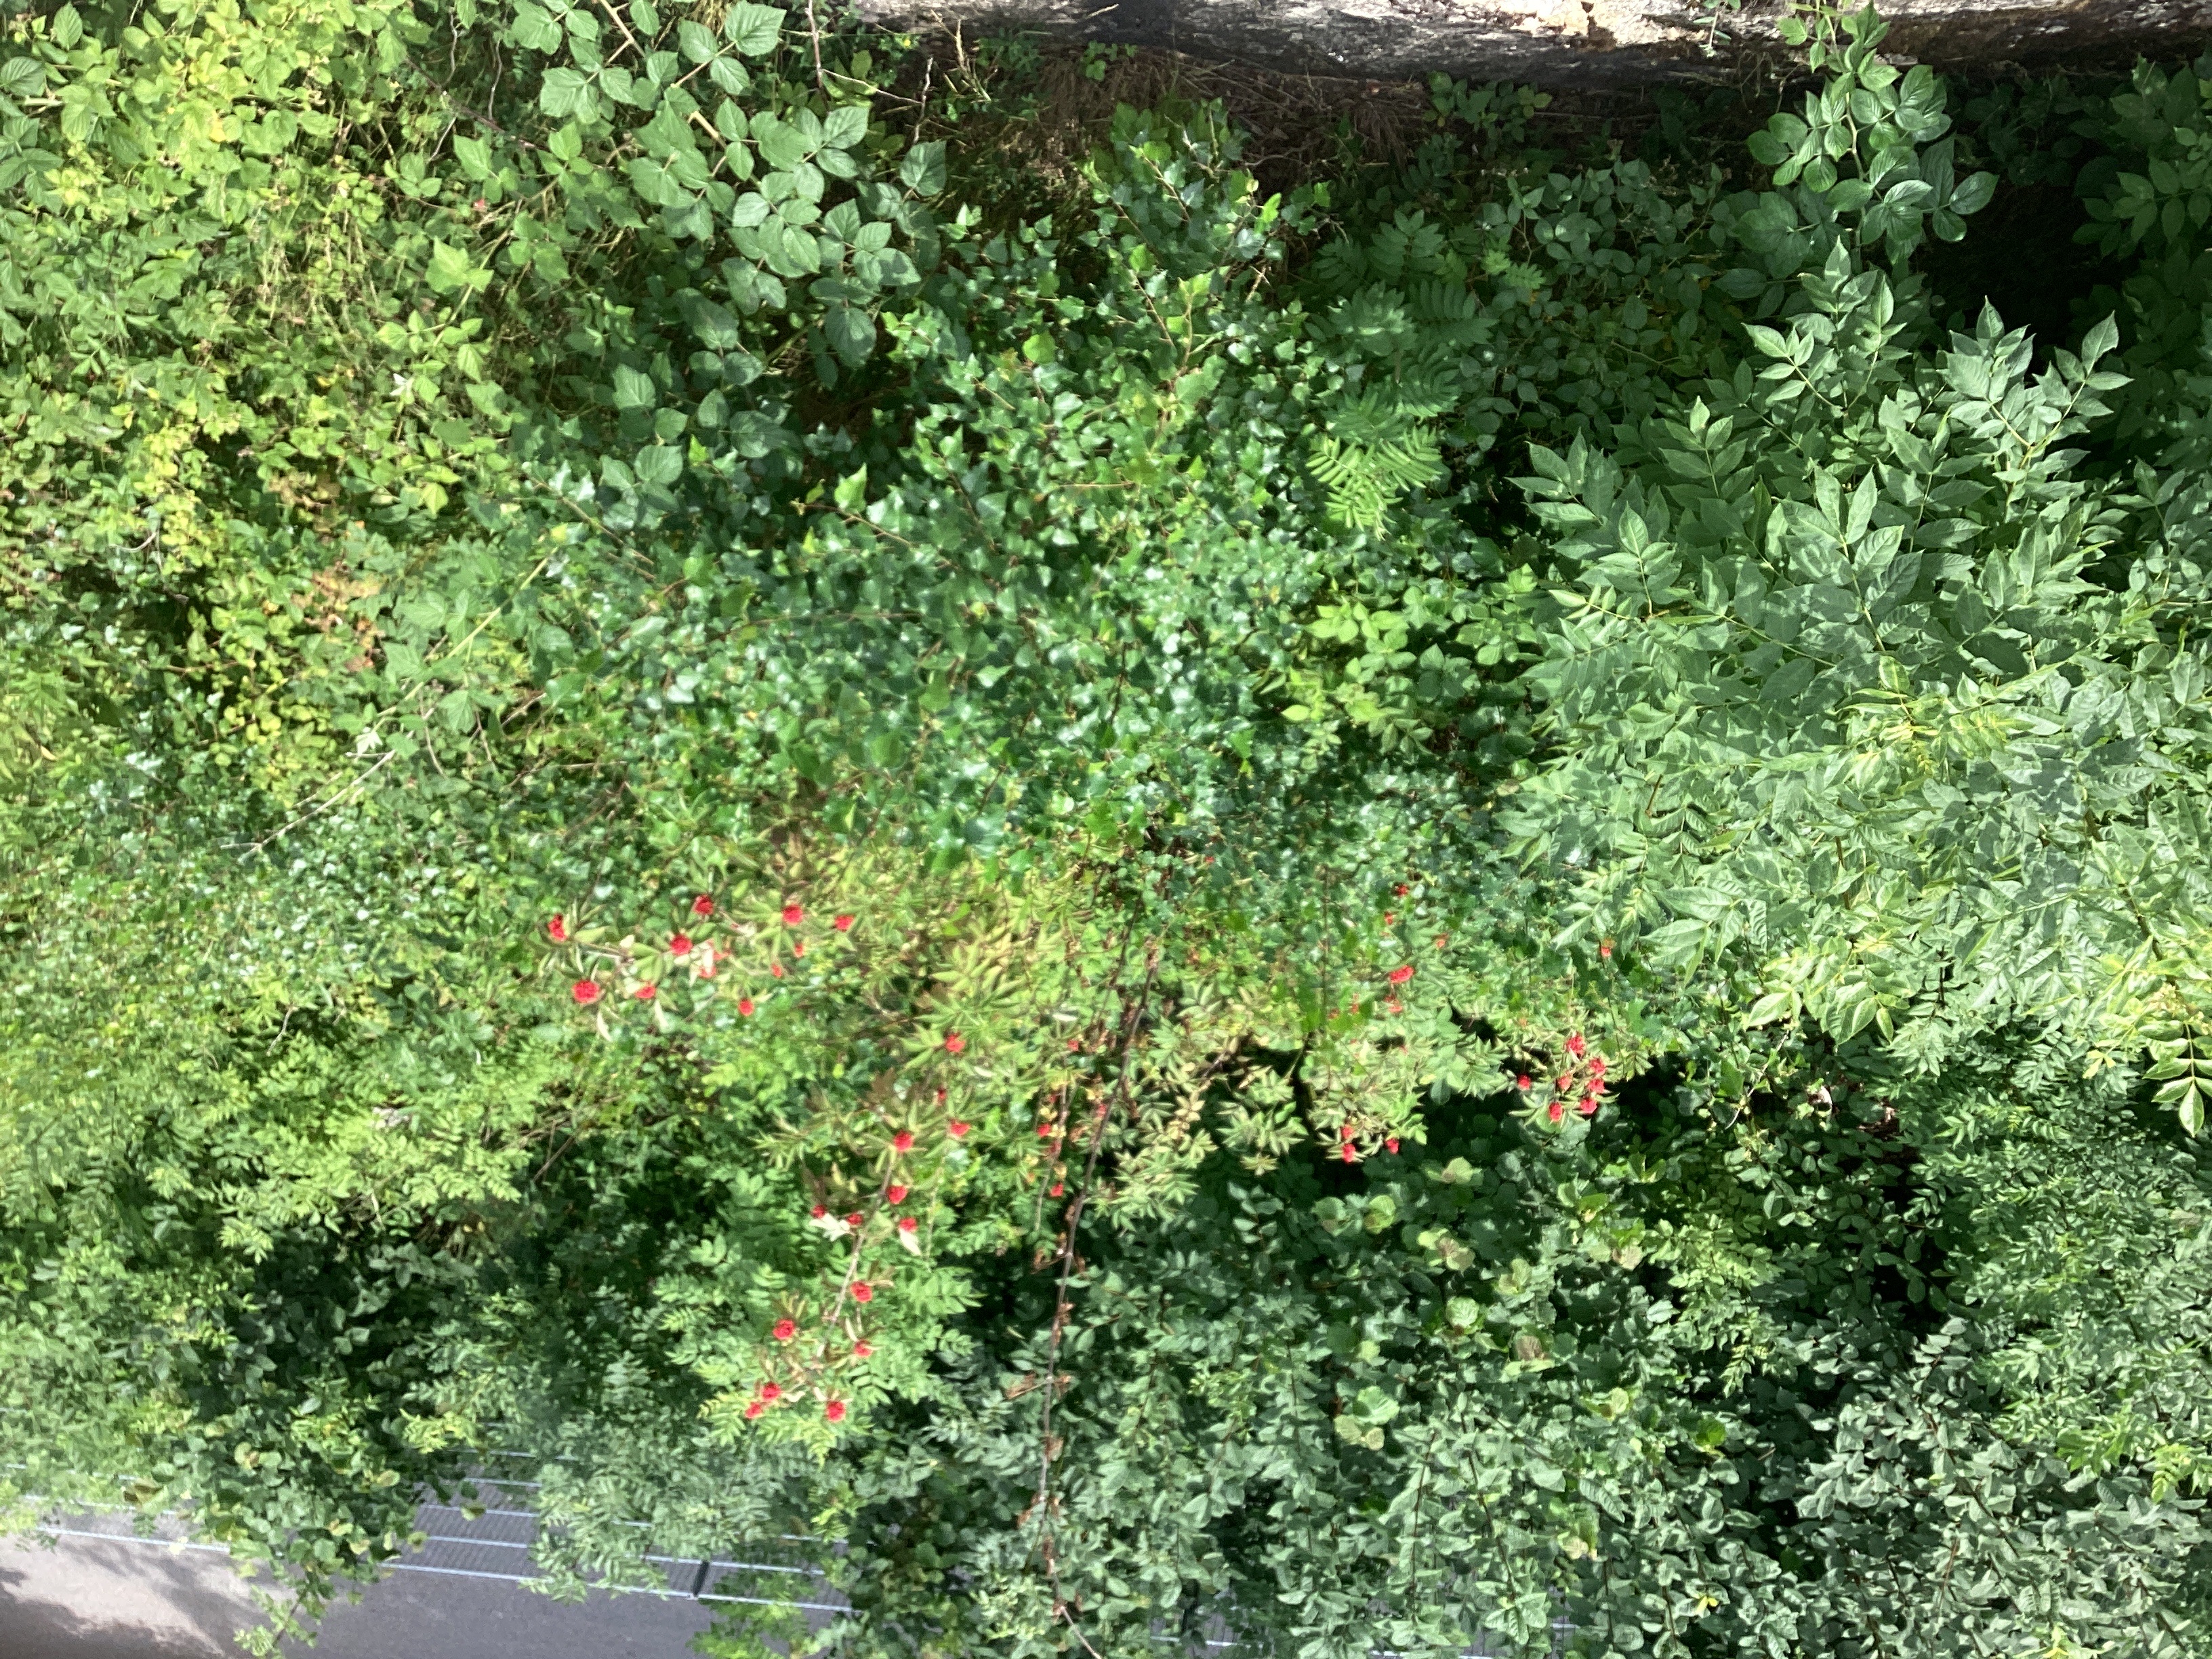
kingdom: Plantae
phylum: Tracheophyta
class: Magnoliopsida
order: Dipsacales
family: Viburnaceae
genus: Sambucus
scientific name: Sambucus racemosa
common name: rødhyll
